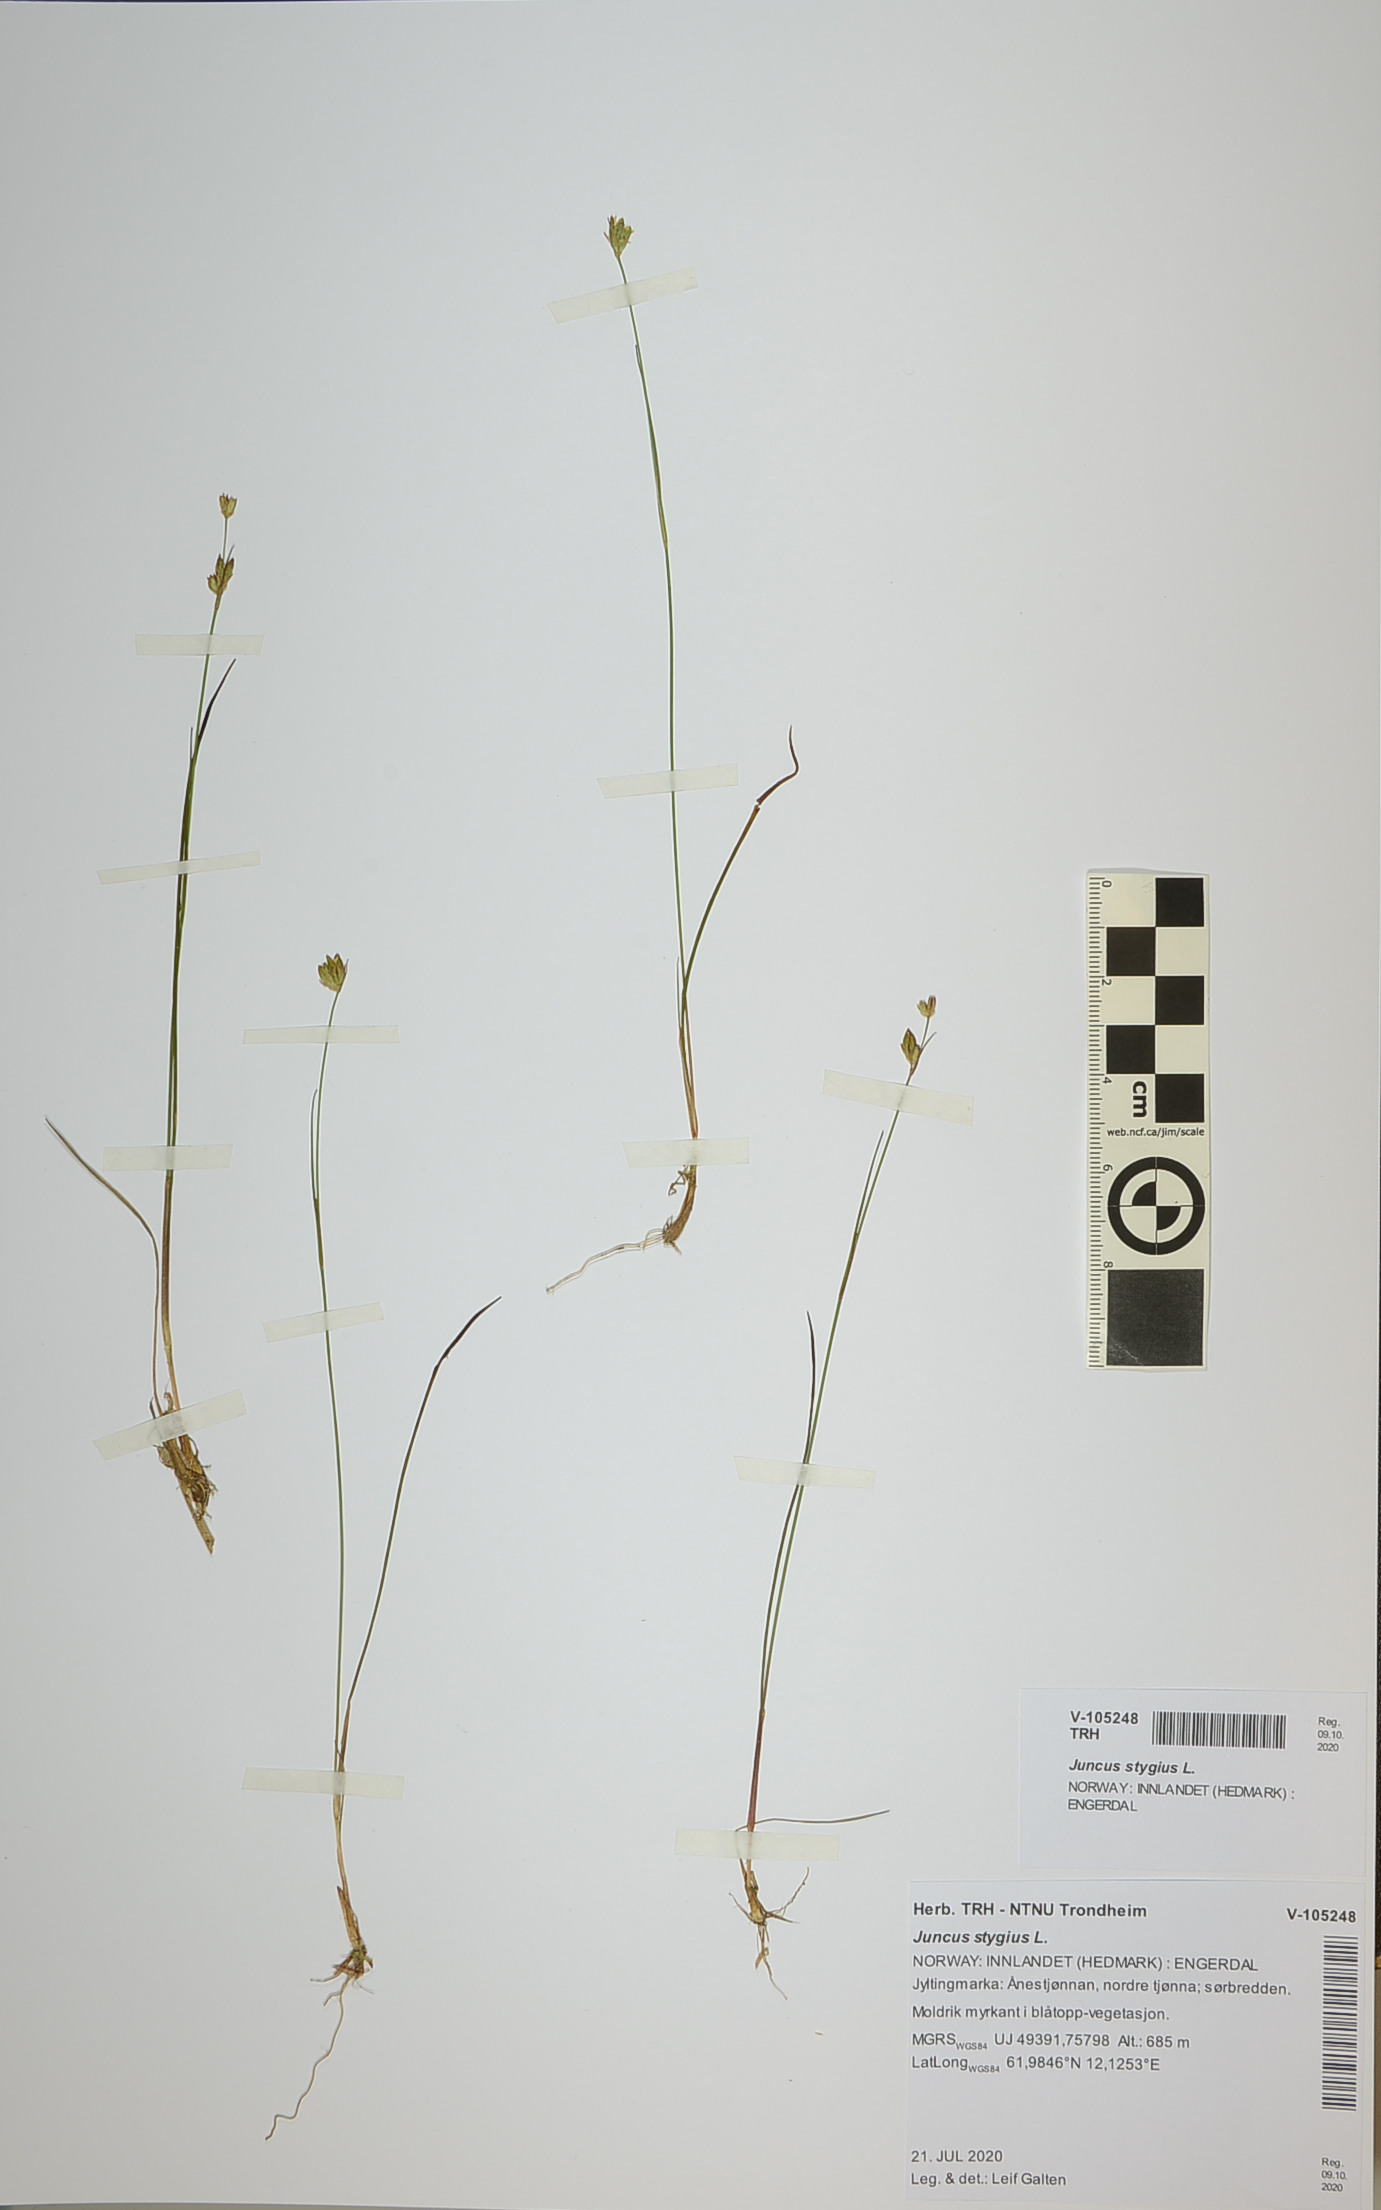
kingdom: Plantae
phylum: Tracheophyta
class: Liliopsida
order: Poales
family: Juncaceae
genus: Juncus
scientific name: Juncus stygius
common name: Bog rush
